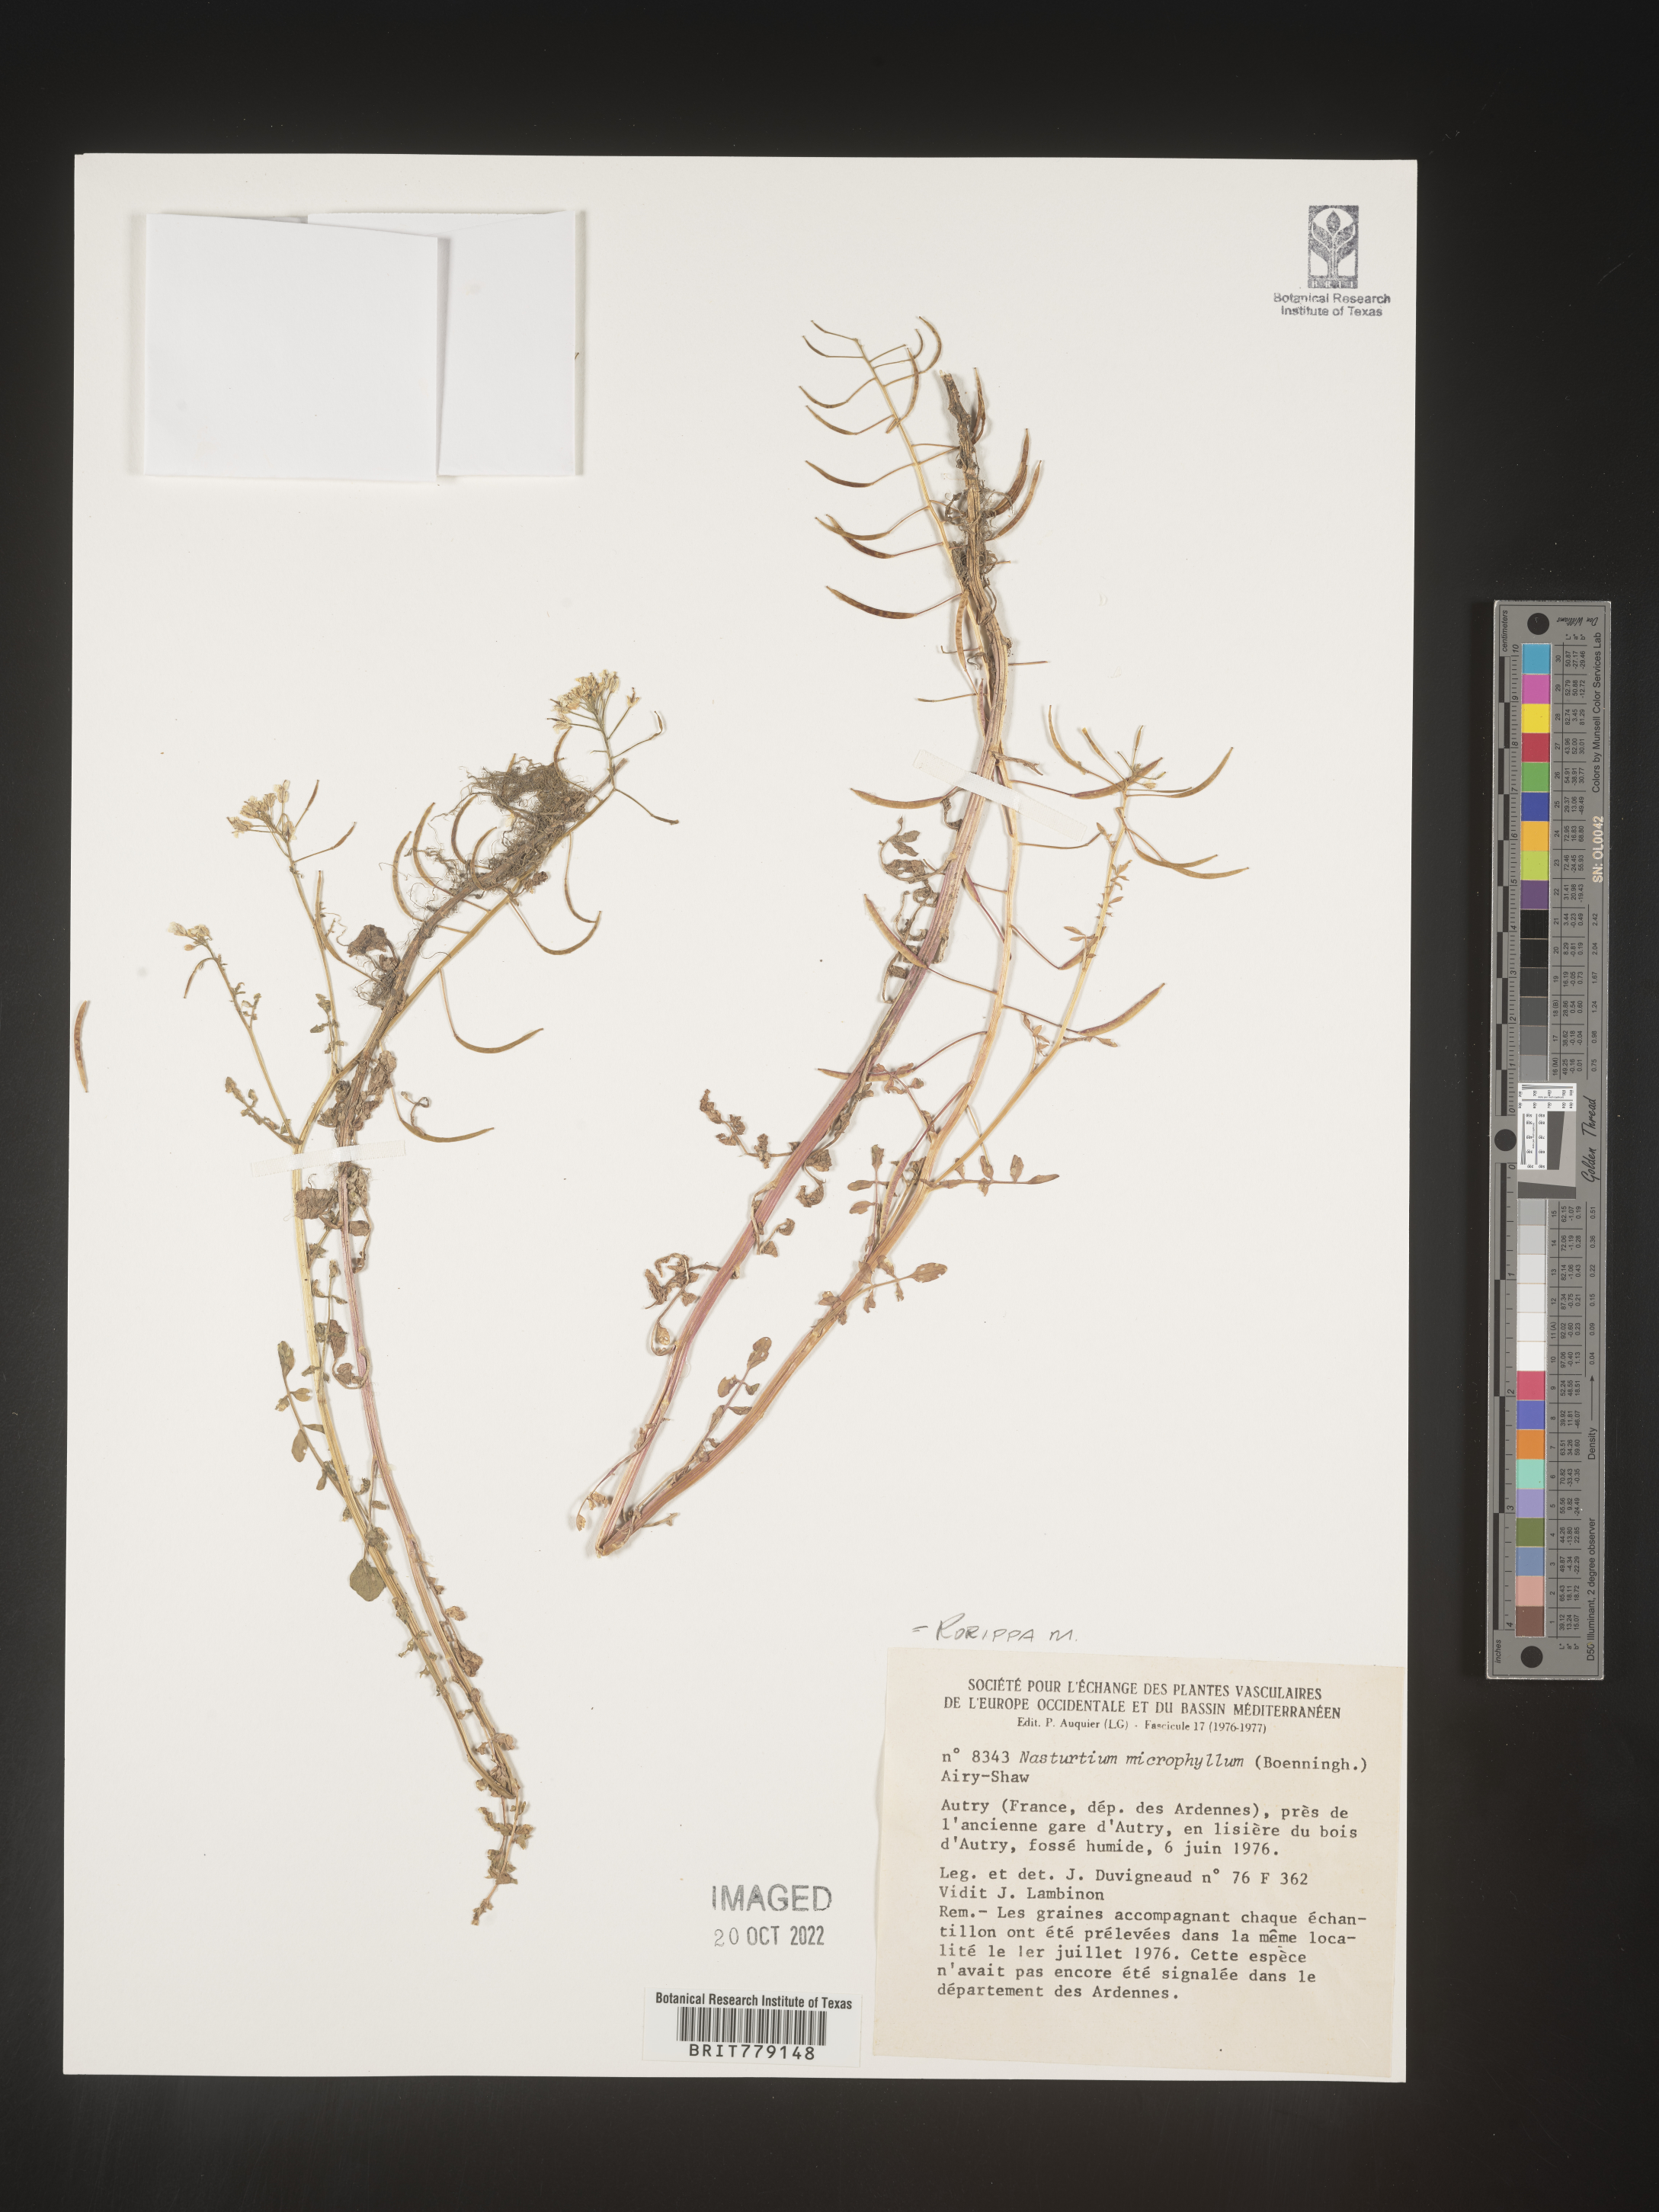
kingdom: Plantae
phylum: Tracheophyta
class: Magnoliopsida
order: Brassicales
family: Brassicaceae
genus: Rorippa
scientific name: Rorippa
